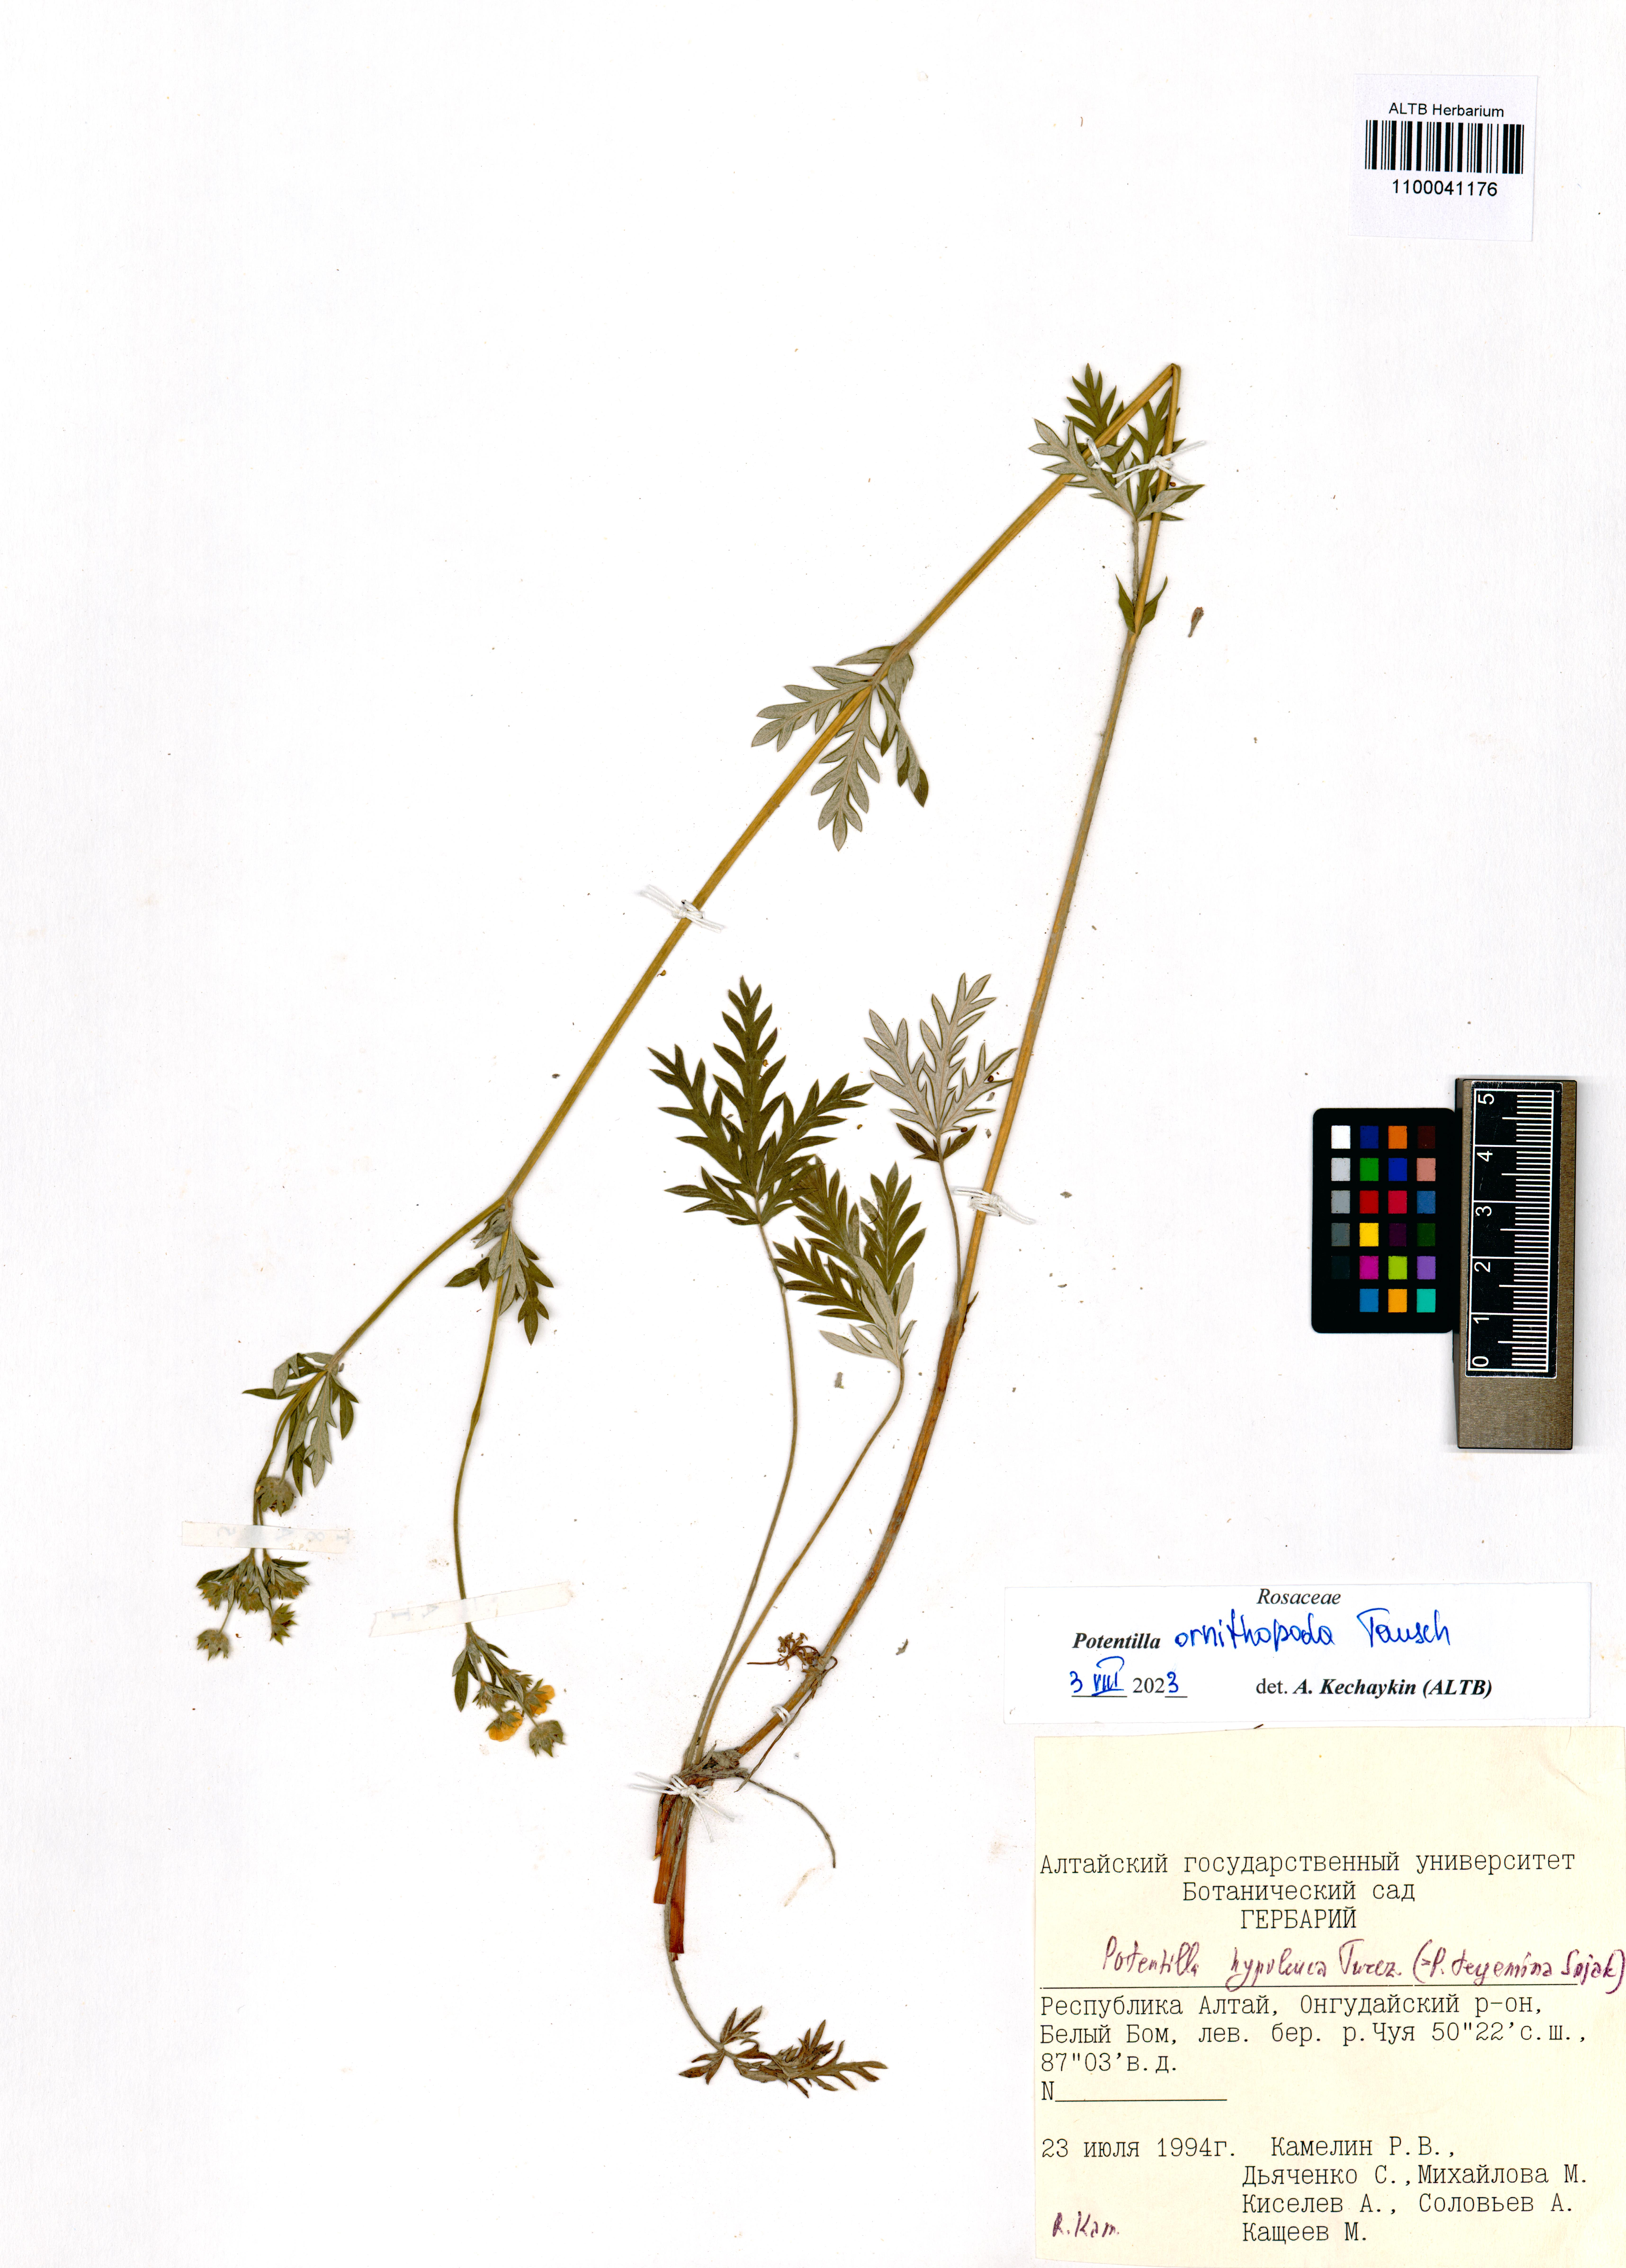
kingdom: Plantae
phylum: Tracheophyta
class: Magnoliopsida
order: Rosales
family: Rosaceae
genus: Potentilla
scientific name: Potentilla ornithopoda
